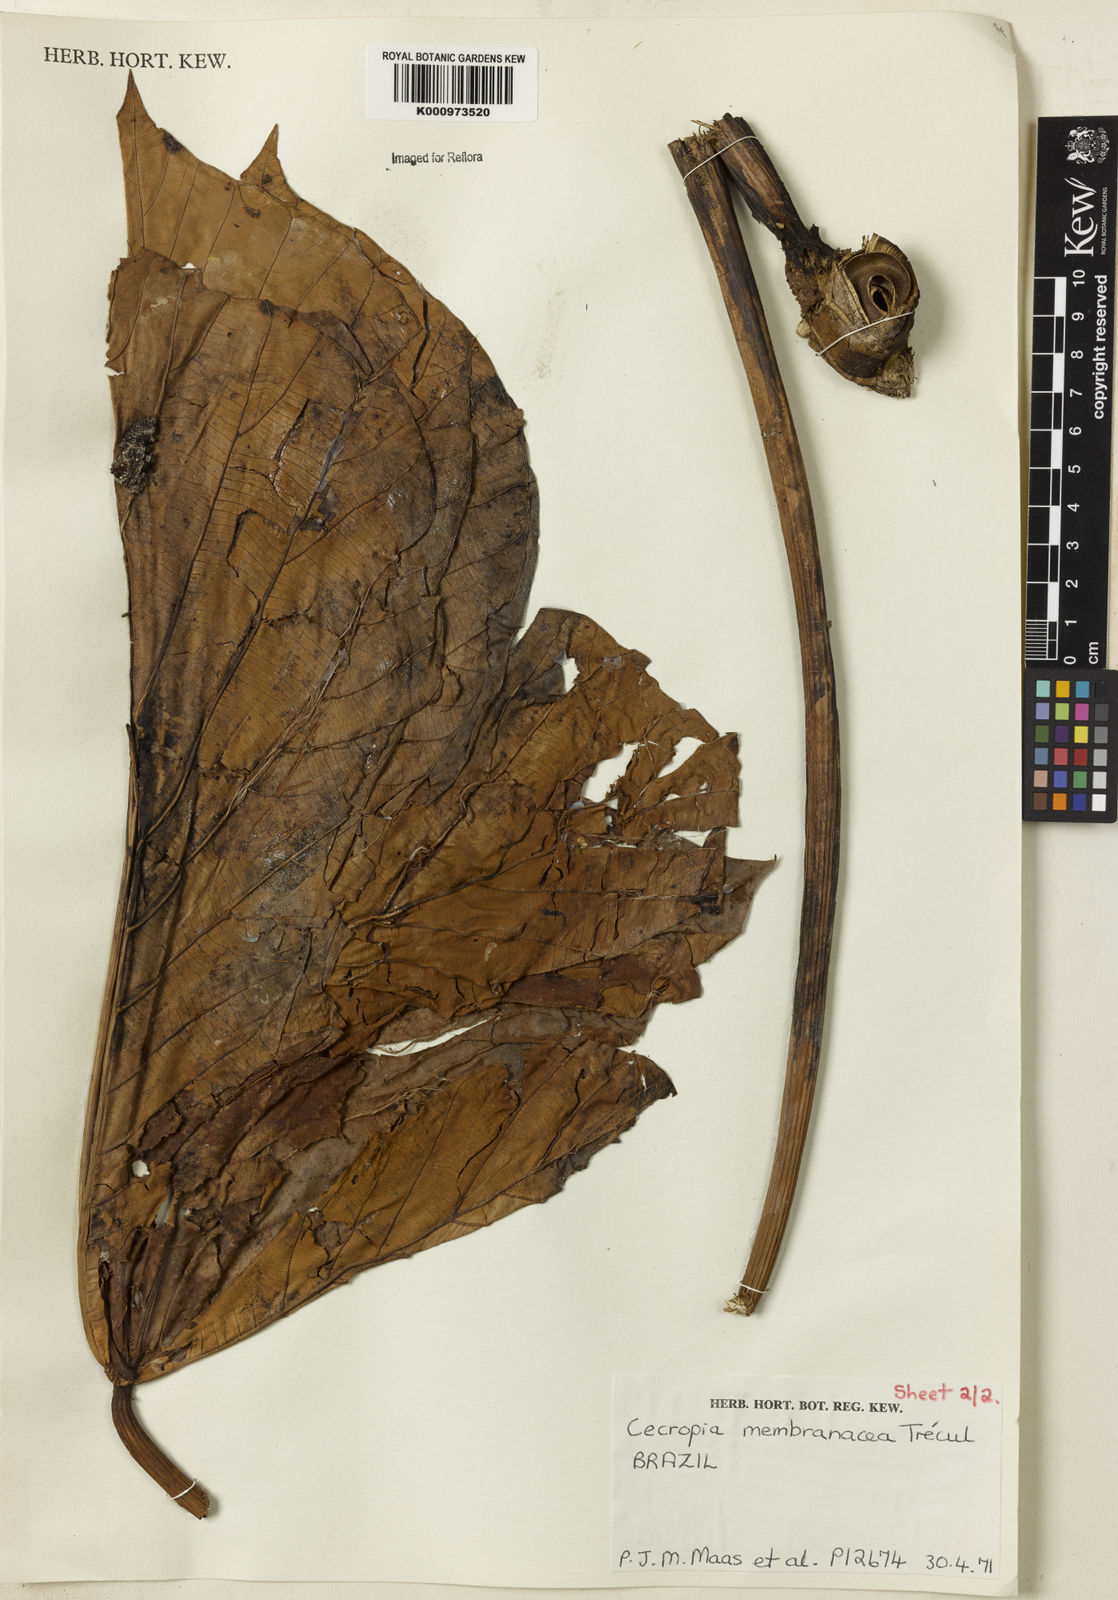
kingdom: Plantae
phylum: Tracheophyta
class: Magnoliopsida
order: Rosales
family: Urticaceae
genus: Cecropia
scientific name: Cecropia
